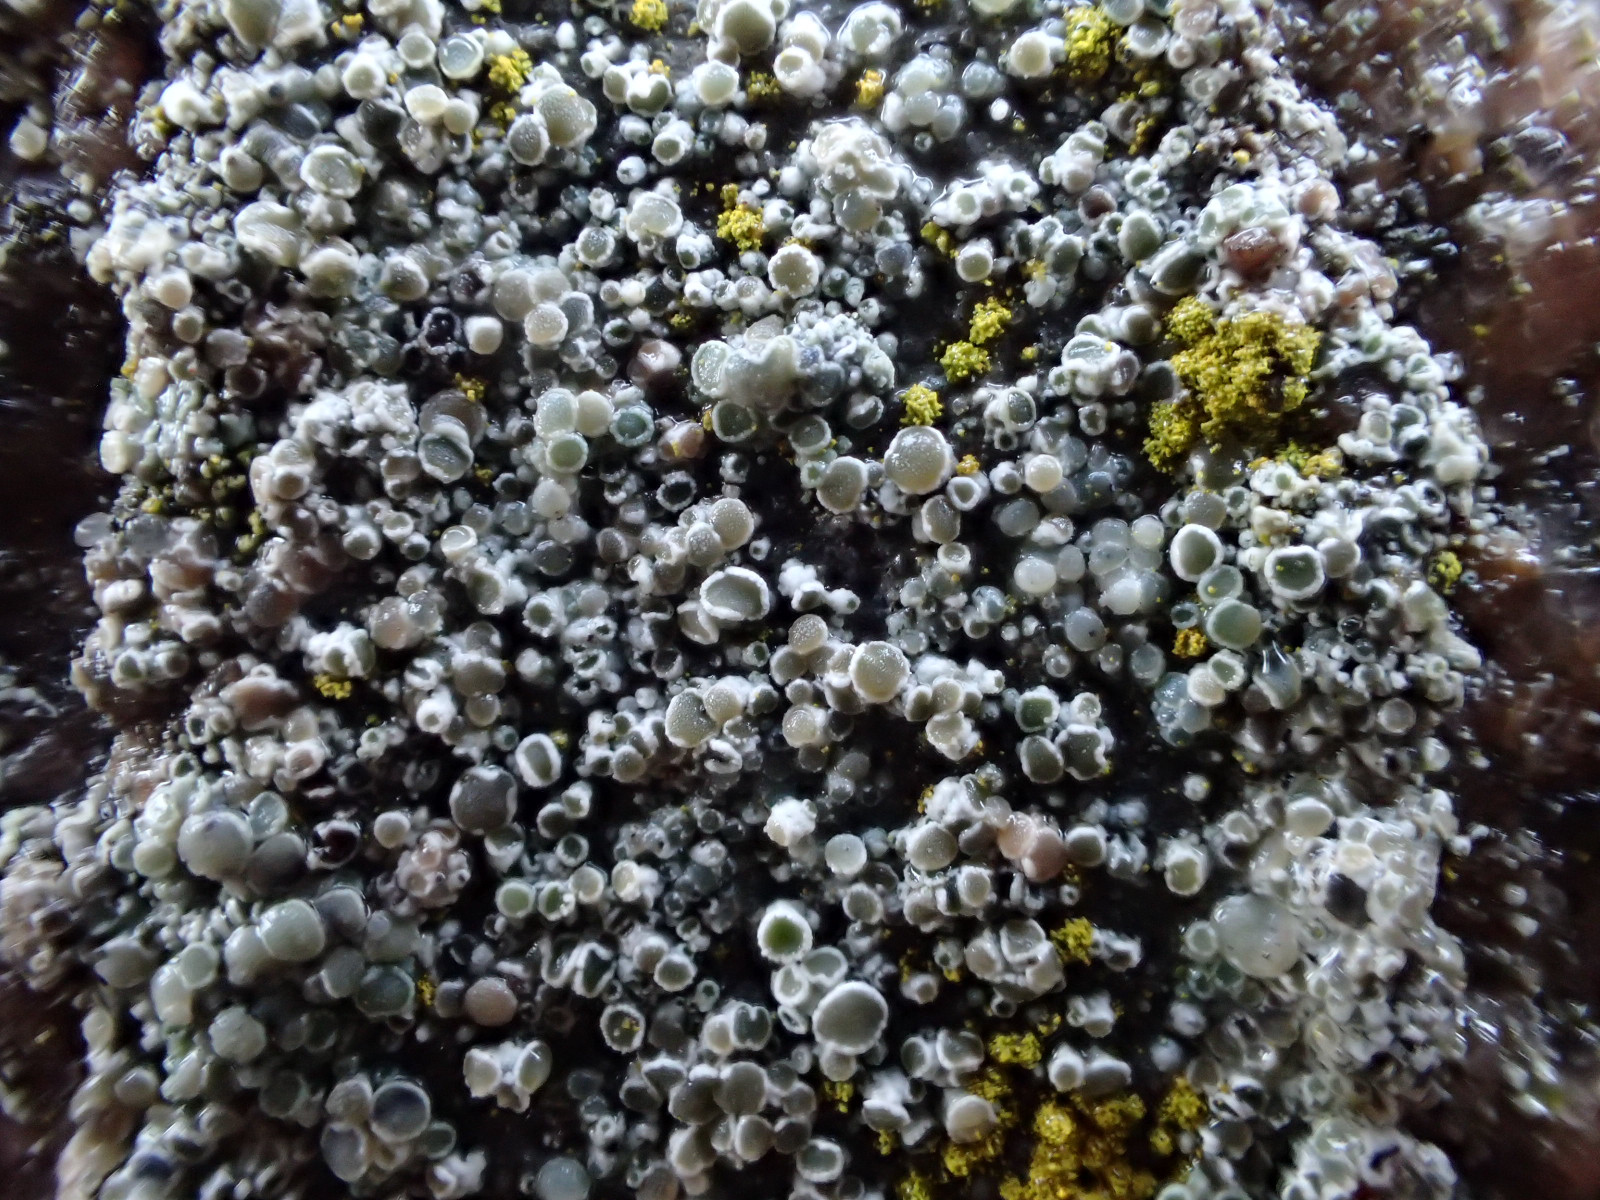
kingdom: Fungi
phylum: Ascomycota
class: Lecanoromycetes
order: Lecanorales
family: Lecanoraceae
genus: Polyozosia
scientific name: Polyozosia albescens
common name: cement-kantskivelav
